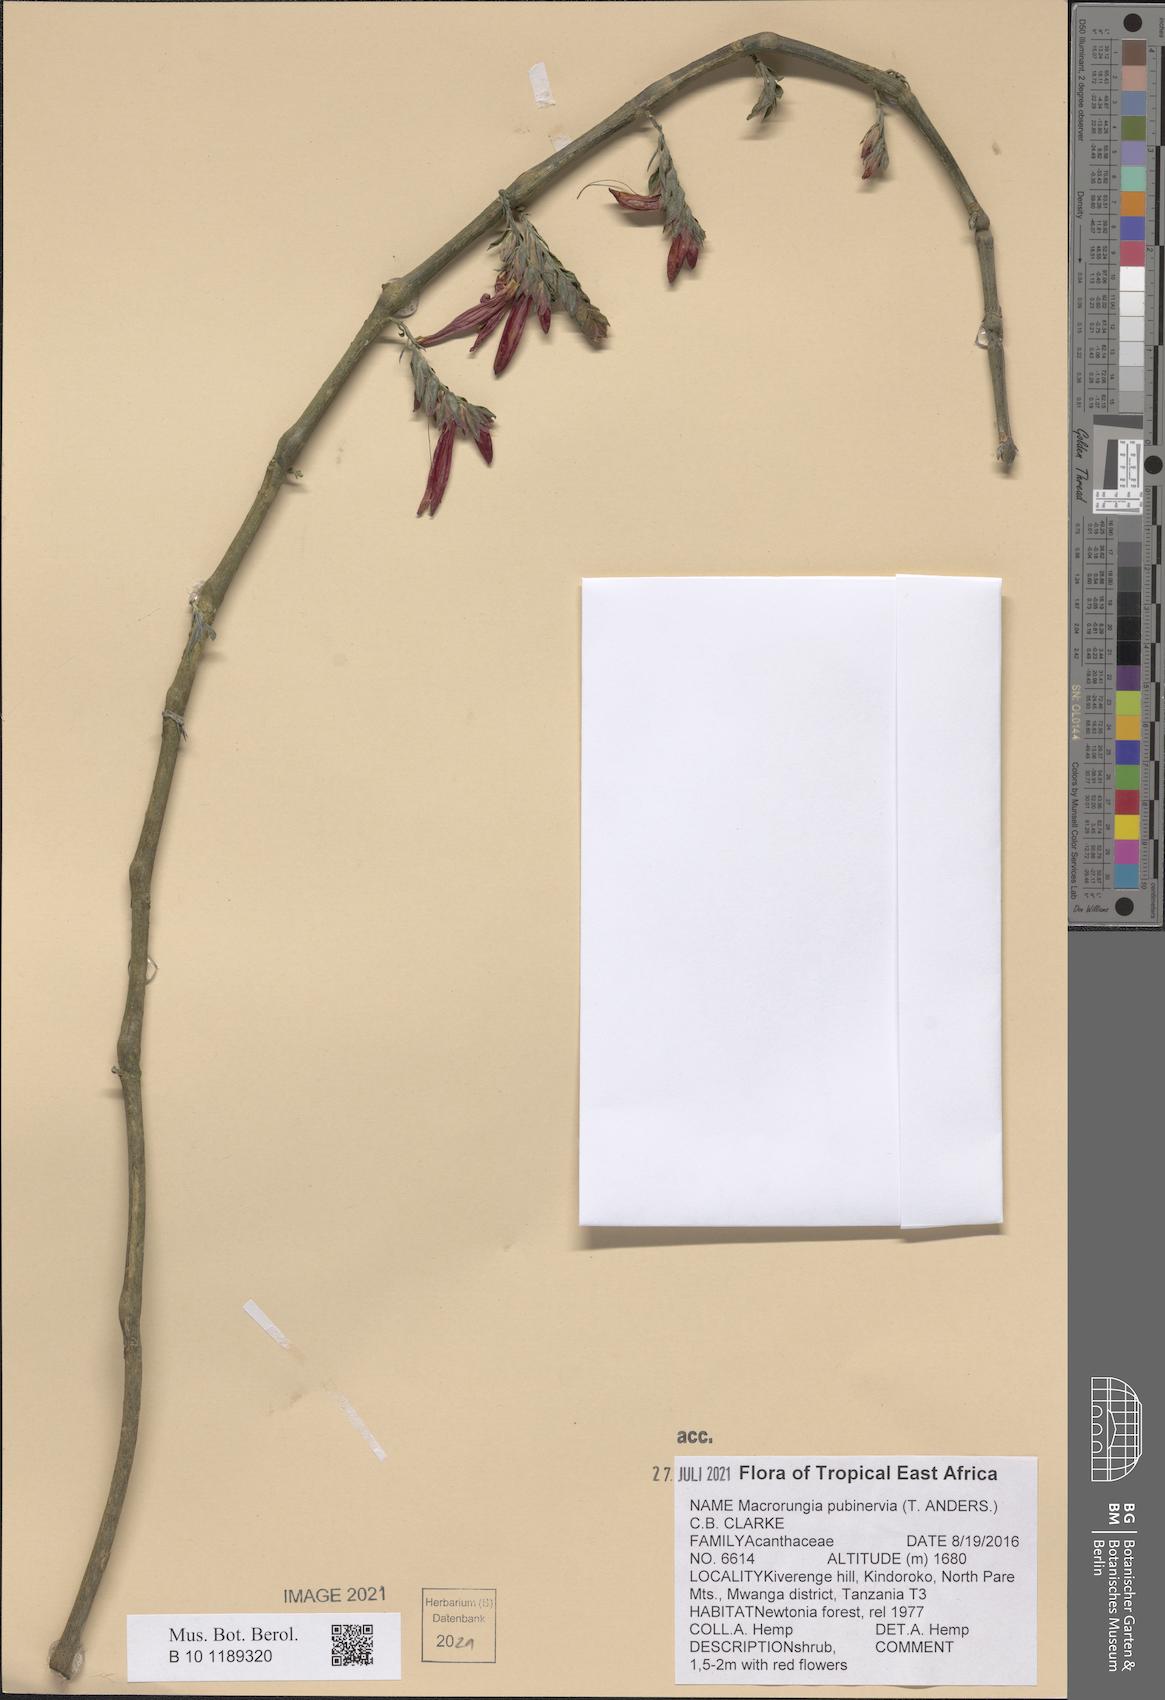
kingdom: Plantae
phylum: Tracheophyta
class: Magnoliopsida
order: Lamiales
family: Acanthaceae
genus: Metarungia
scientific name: Metarungia pubinervia
